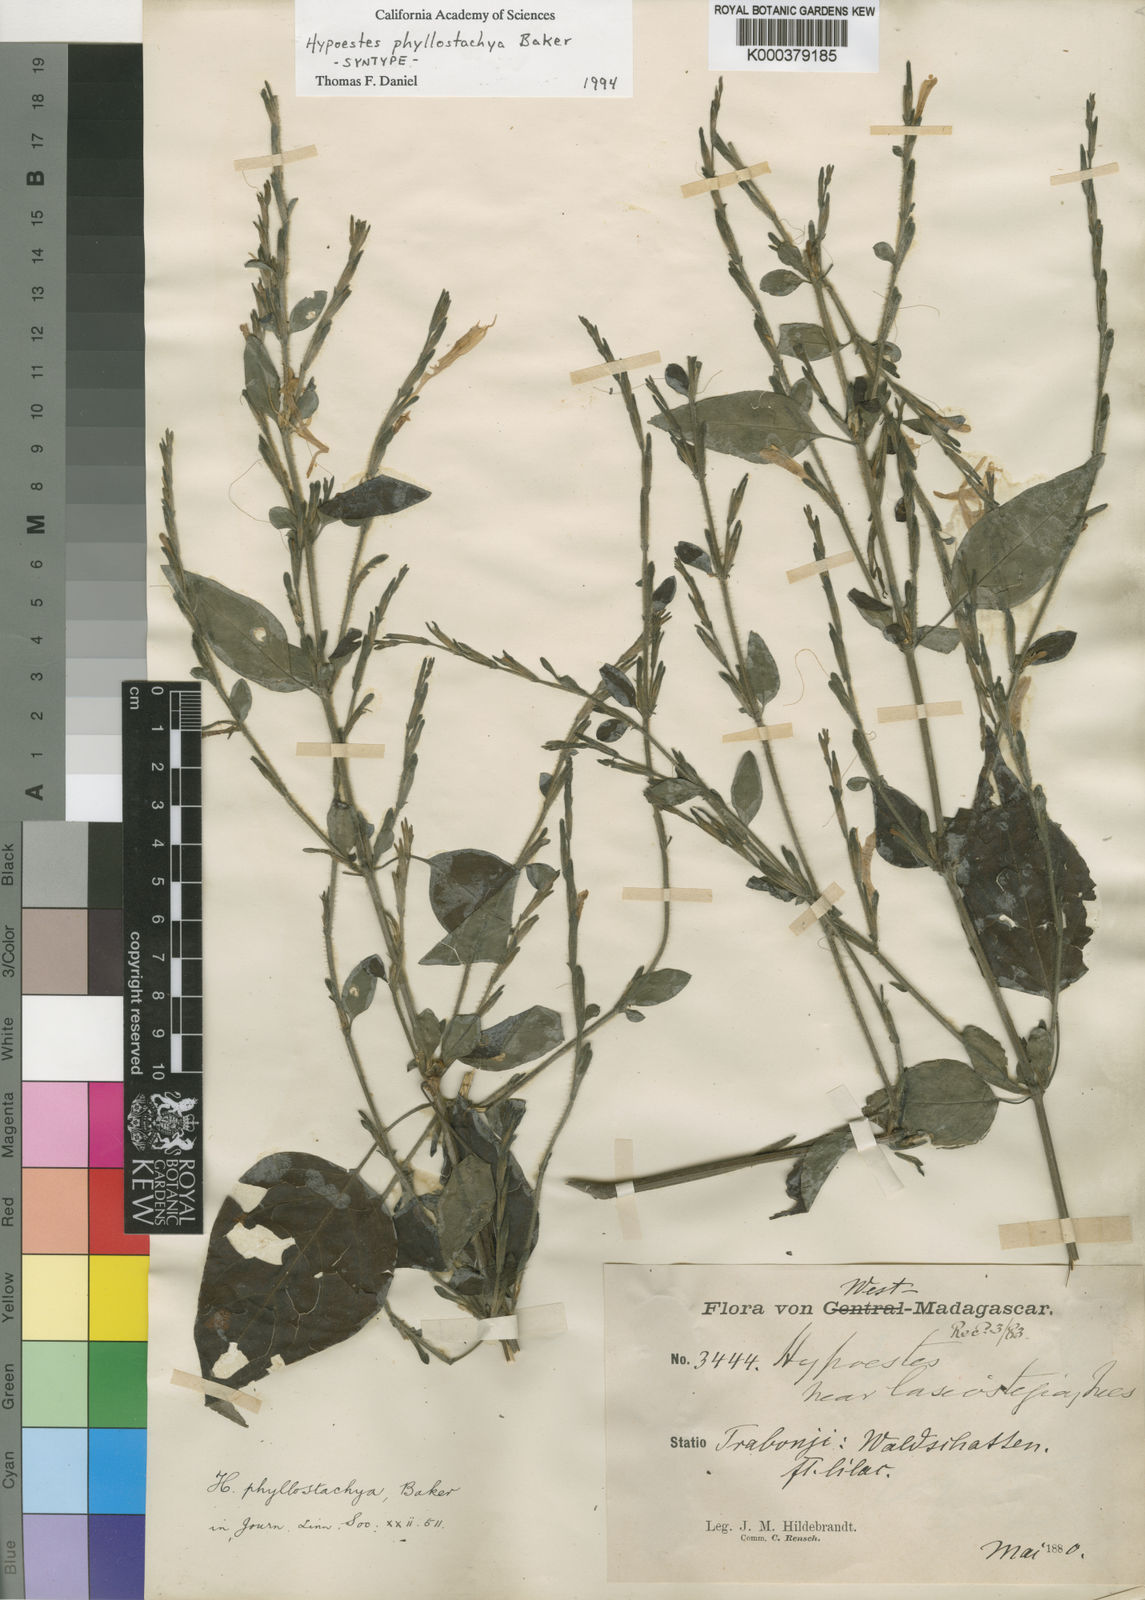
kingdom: Plantae
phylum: Tracheophyta
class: Magnoliopsida
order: Lamiales
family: Acanthaceae
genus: Hypoestes
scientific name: Hypoestes phyllostachya
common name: Polkadot-plant
